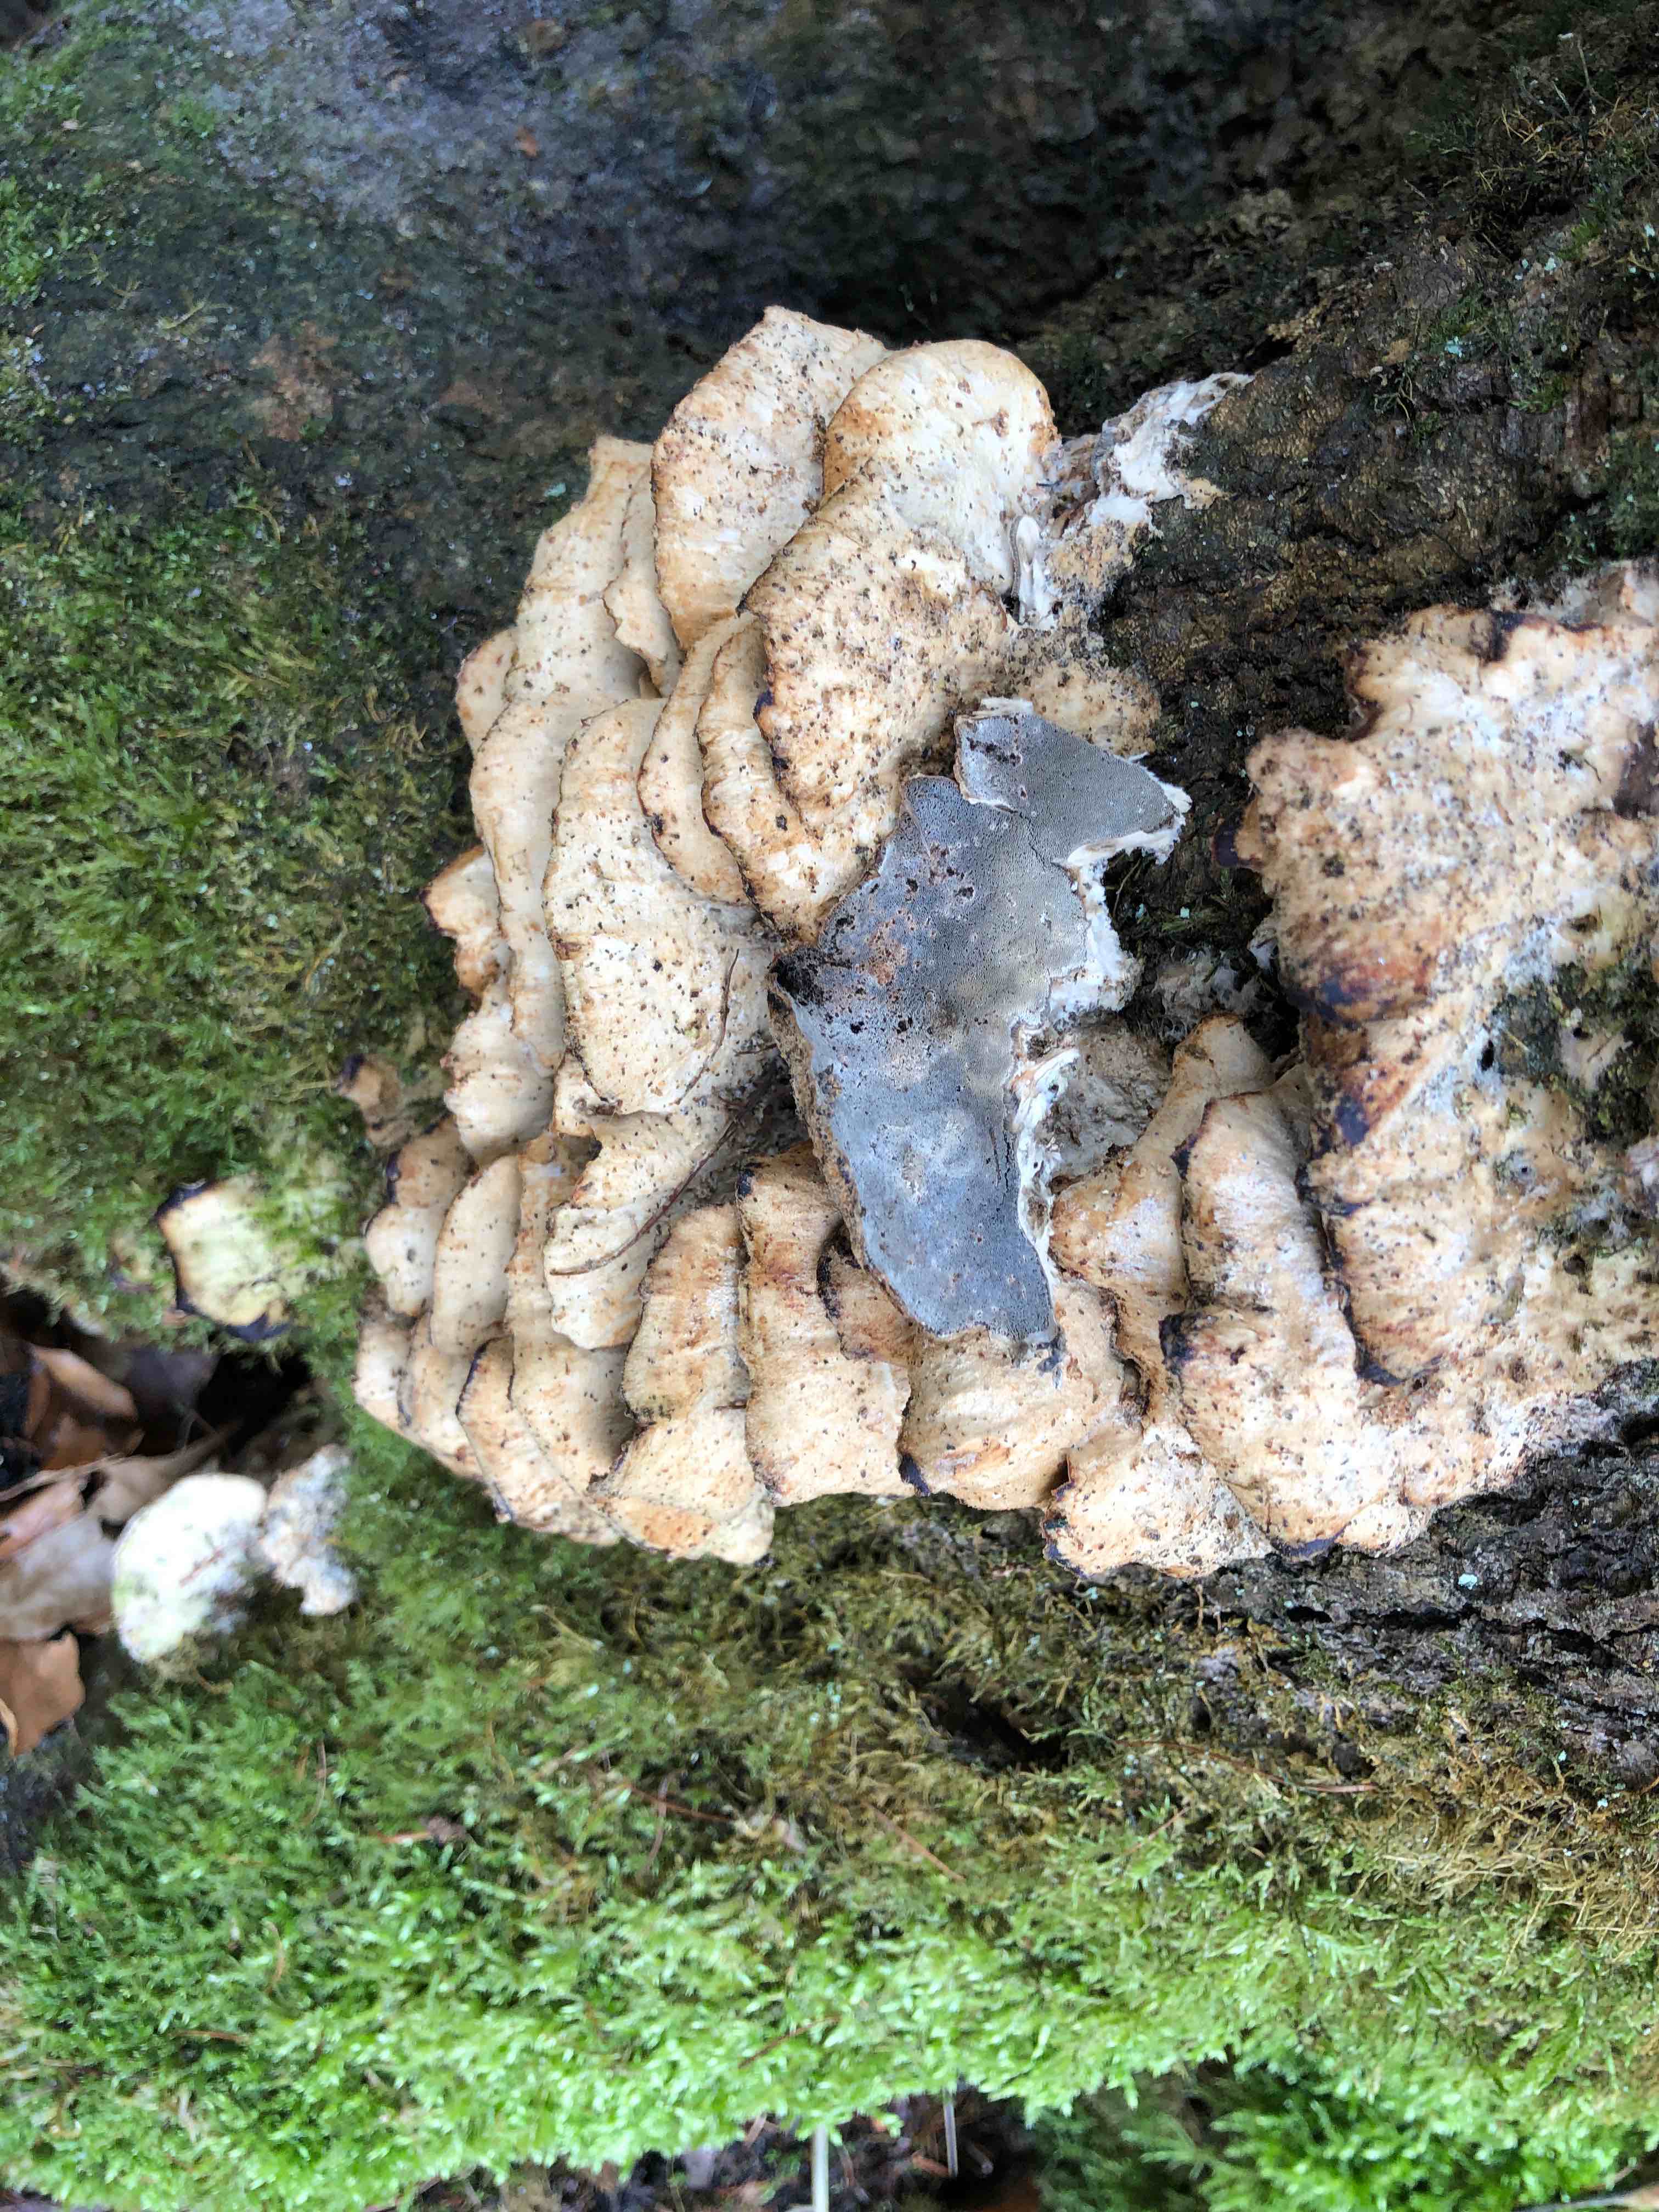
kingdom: Fungi
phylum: Basidiomycota
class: Agaricomycetes
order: Polyporales
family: Phanerochaetaceae
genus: Bjerkandera
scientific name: Bjerkandera adusta
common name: sveden sodporesvamp
